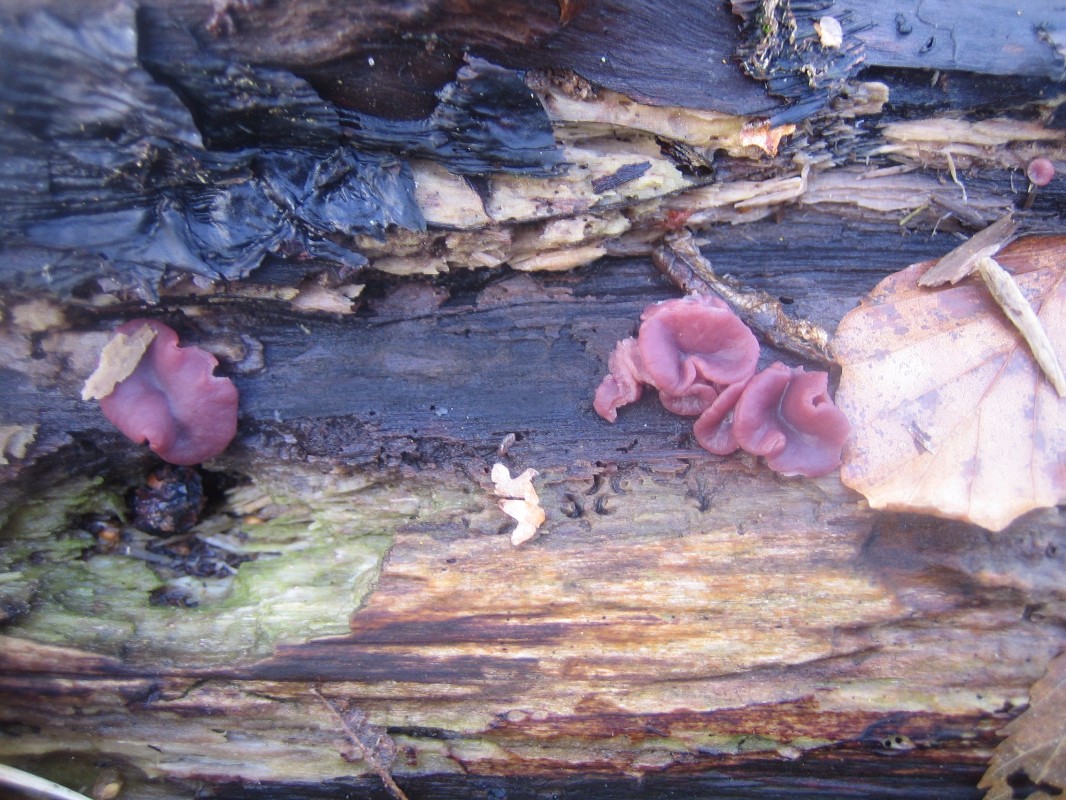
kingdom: Fungi
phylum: Ascomycota
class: Leotiomycetes
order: Helotiales
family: Gelatinodiscaceae
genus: Ascocoryne
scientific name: Ascocoryne cylichnium
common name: stor sejskive
